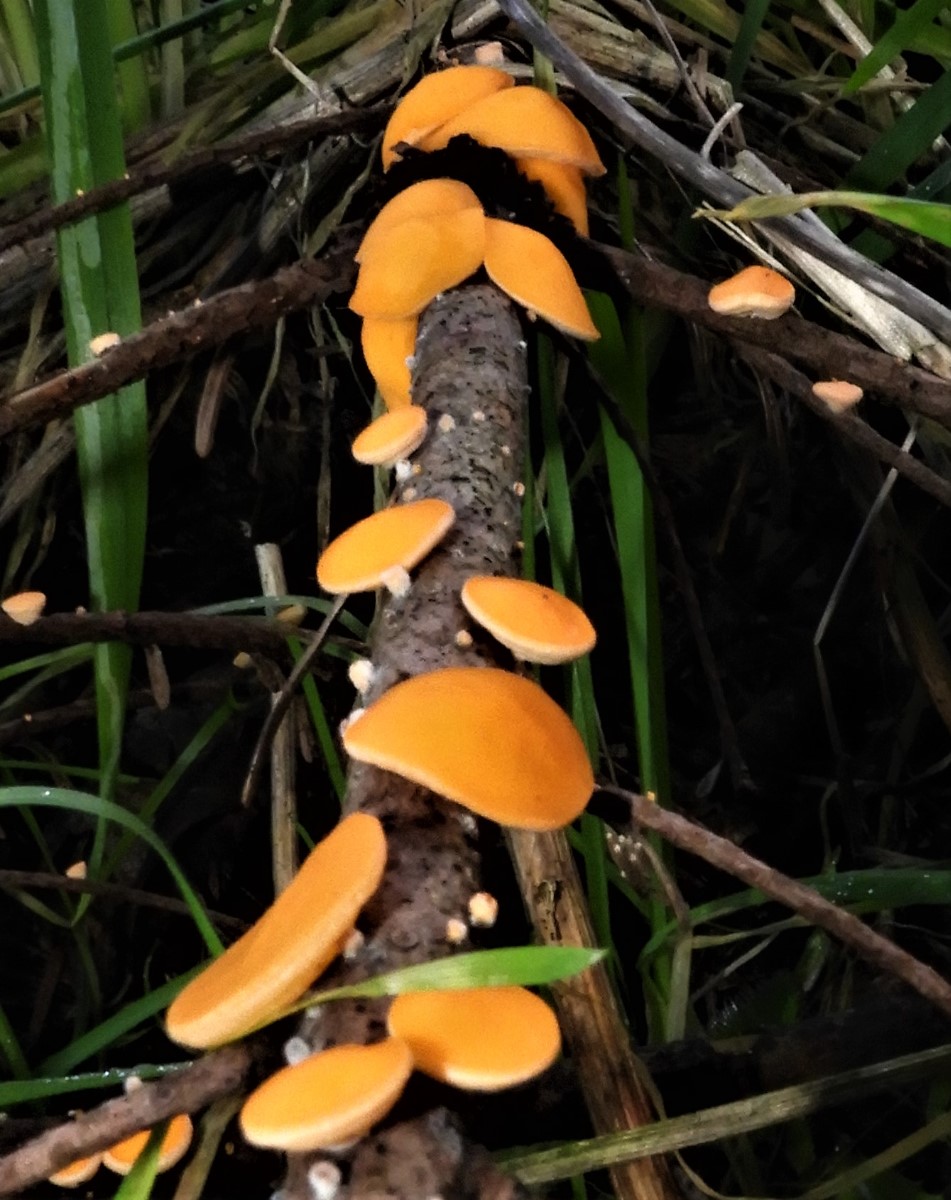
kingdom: Fungi
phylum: Ascomycota
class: Pezizomycetes
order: Pezizales
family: Sarcoscyphaceae
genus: Pithya
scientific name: Pithya vulgaris
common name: stor dukatbæger
